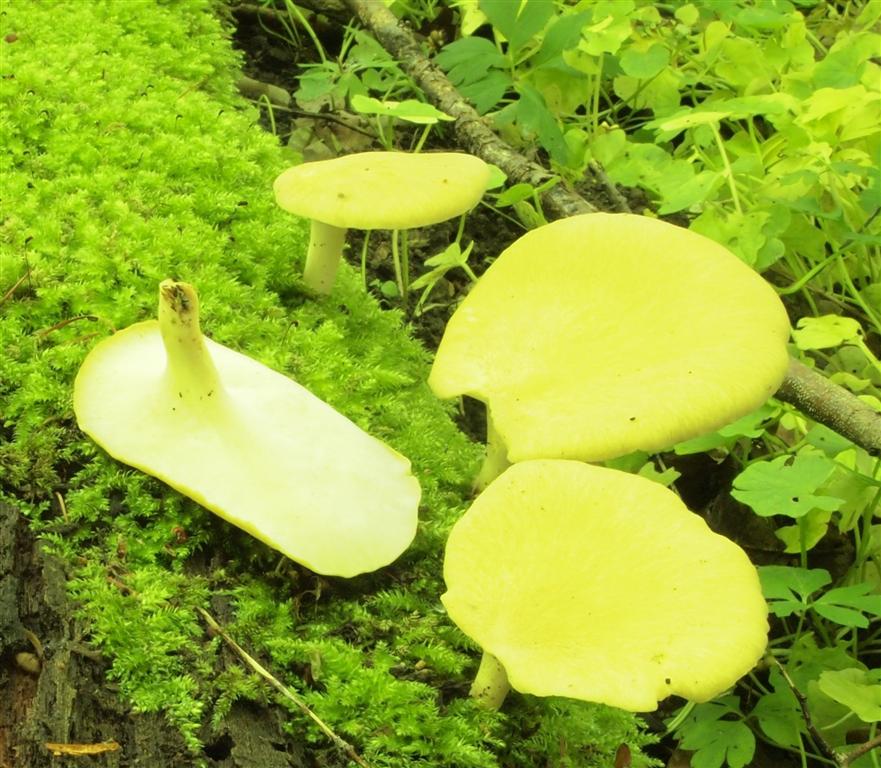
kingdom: Fungi
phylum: Basidiomycota
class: Agaricomycetes
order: Polyporales
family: Polyporaceae
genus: Lentinus
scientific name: Lentinus substrictus
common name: forårs-stilkporesvamp
